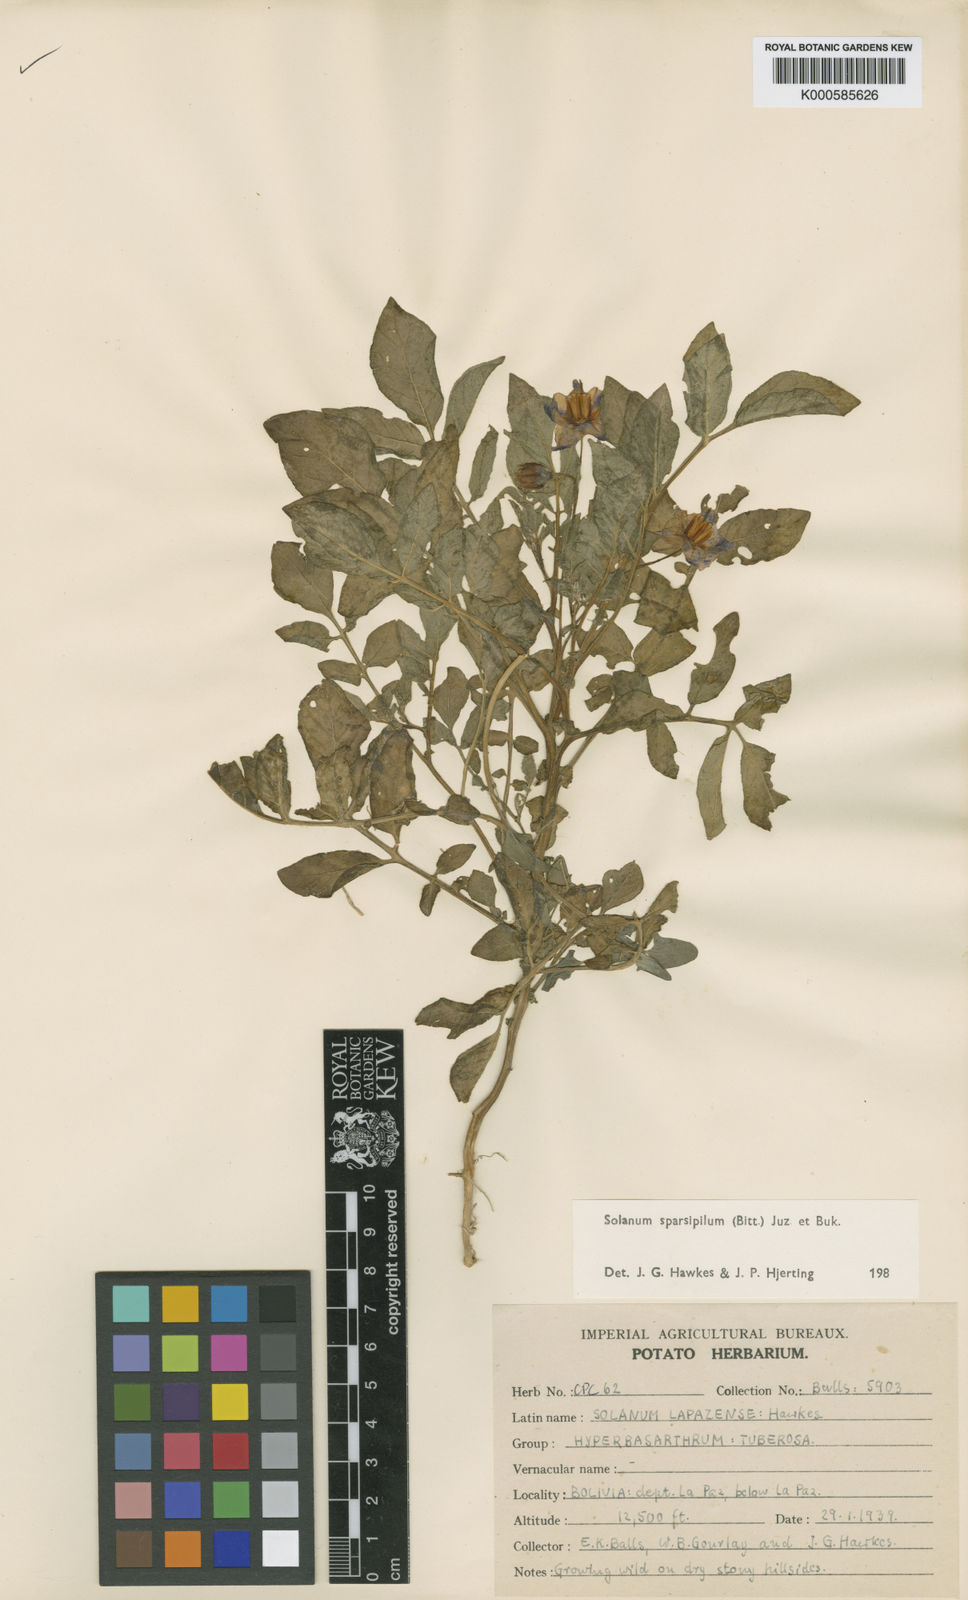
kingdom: Plantae
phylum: Tracheophyta
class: Magnoliopsida
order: Solanales
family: Solanaceae
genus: Solanum
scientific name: Solanum brevicaule
